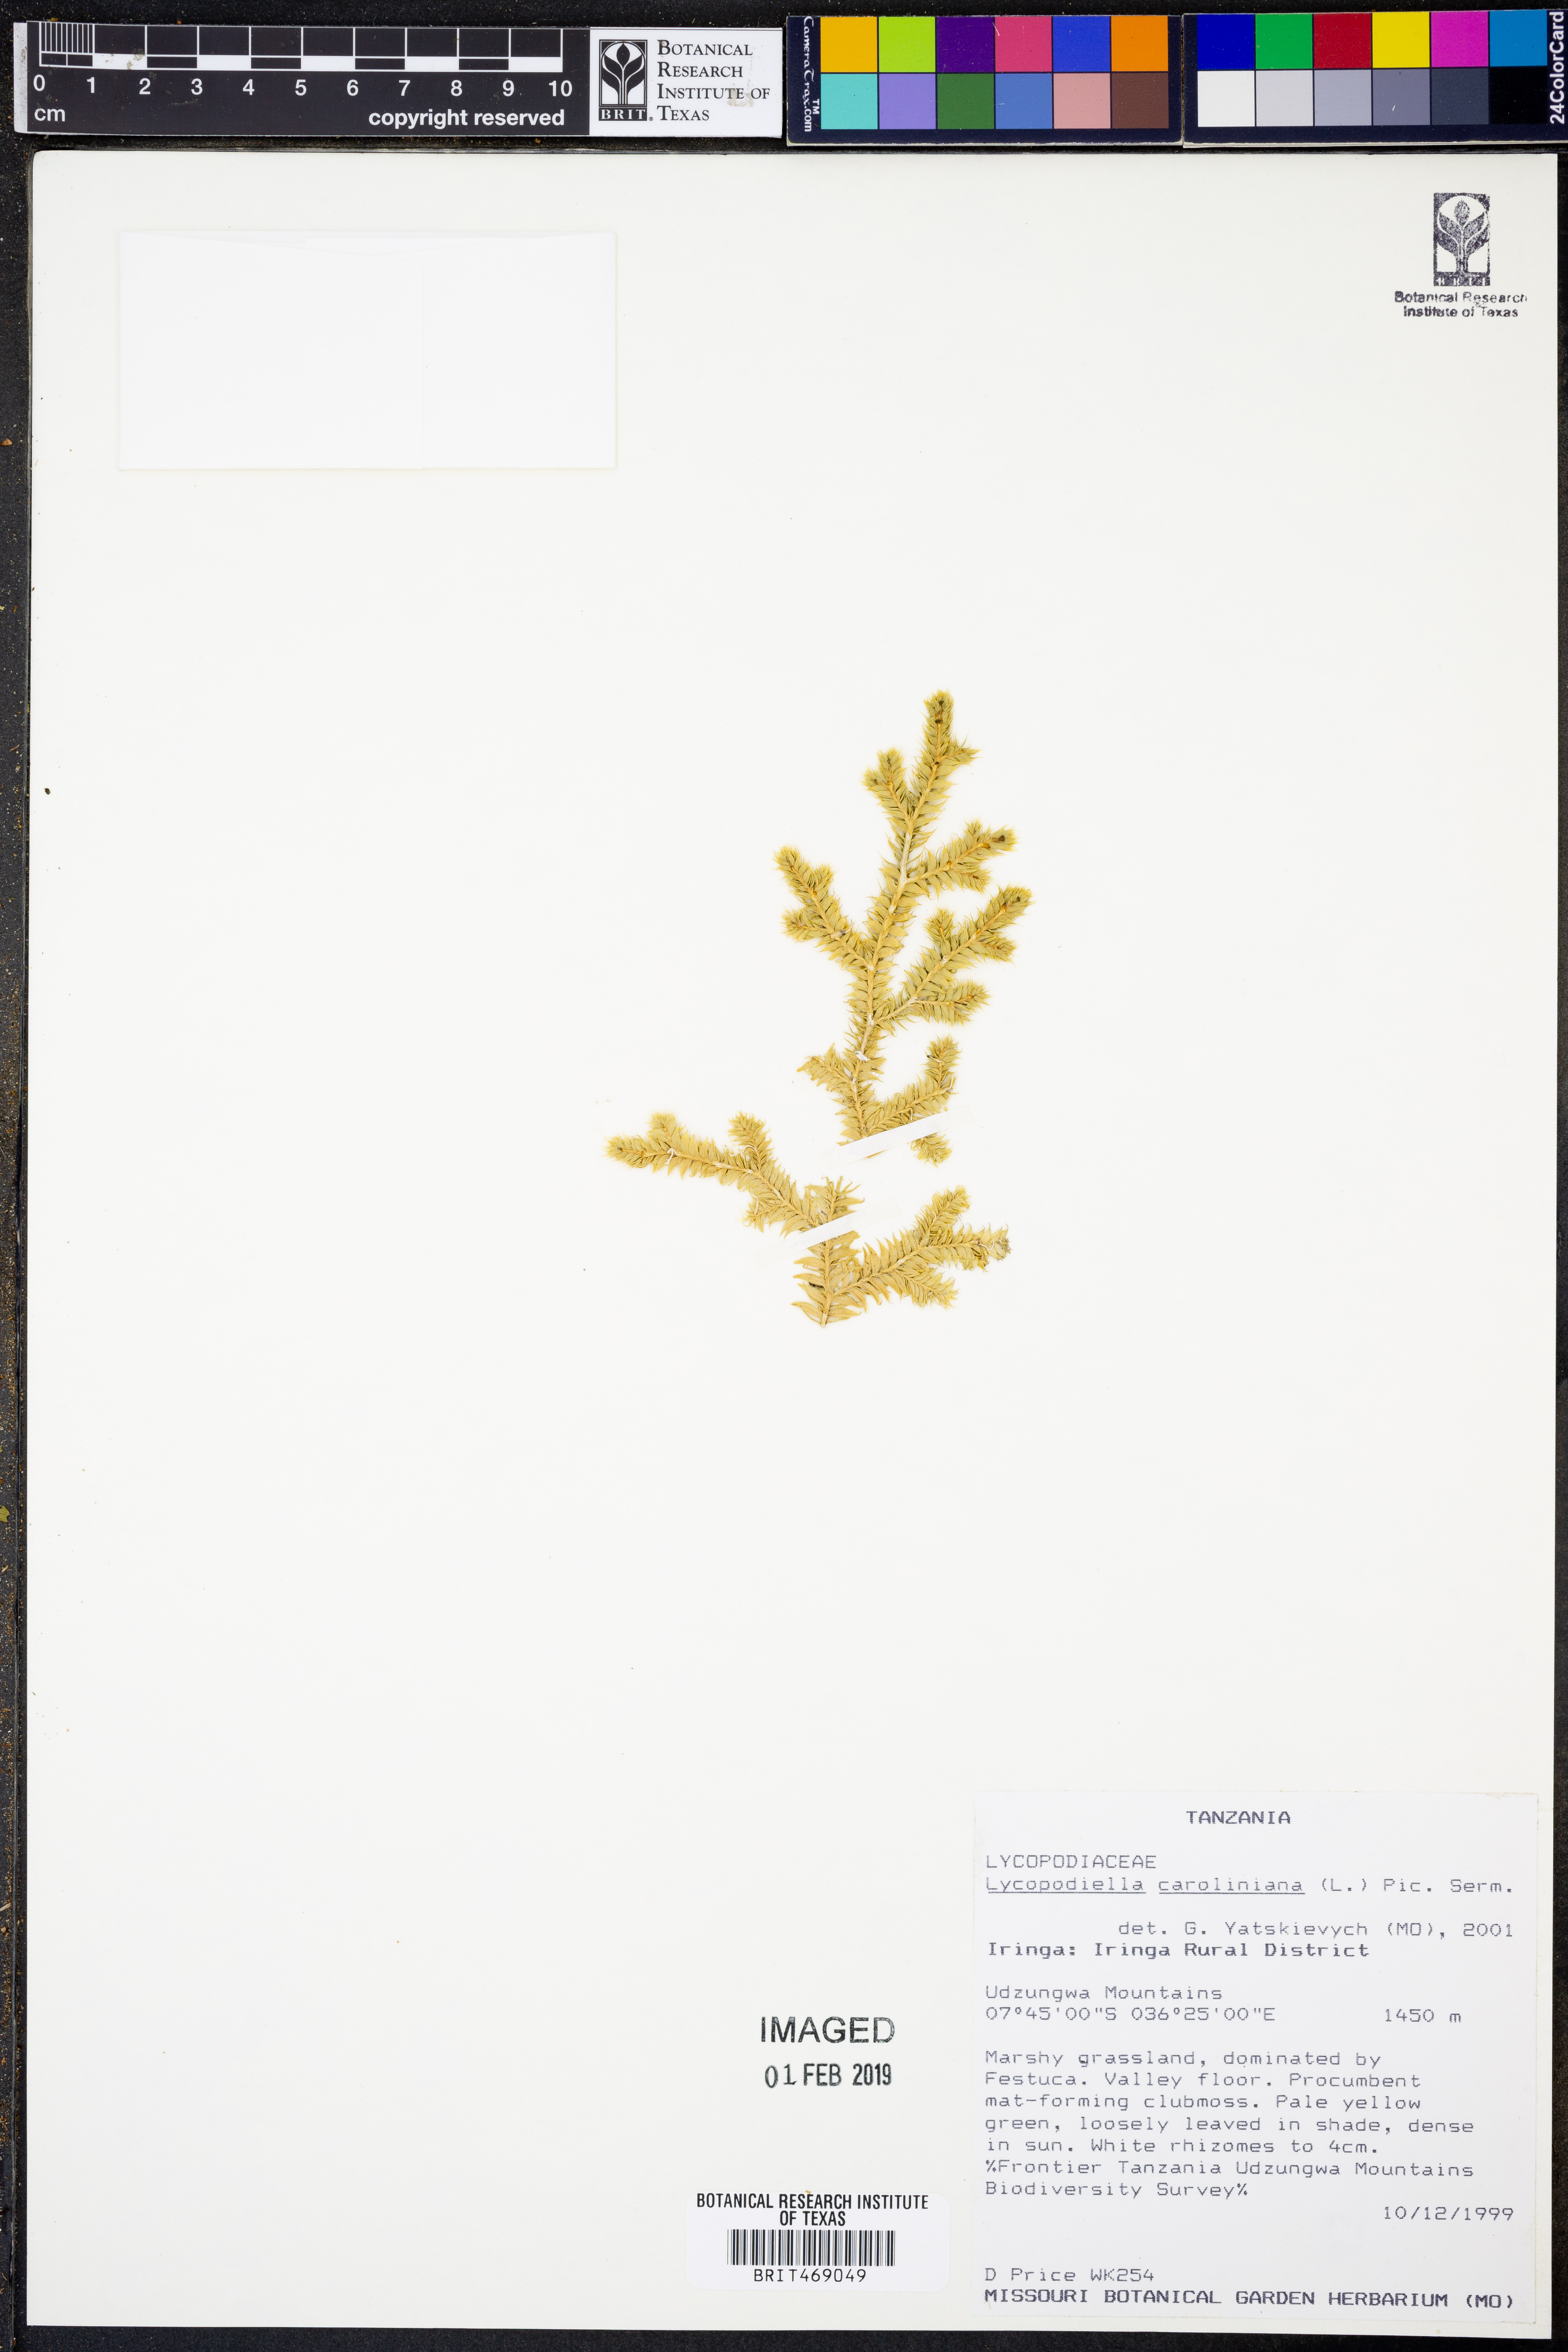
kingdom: Plantae
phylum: Tracheophyta
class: Lycopodiopsida
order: Lycopodiales
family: Lycopodiaceae
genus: Pseudolycopodiella
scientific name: Pseudolycopodiella caroliniana
